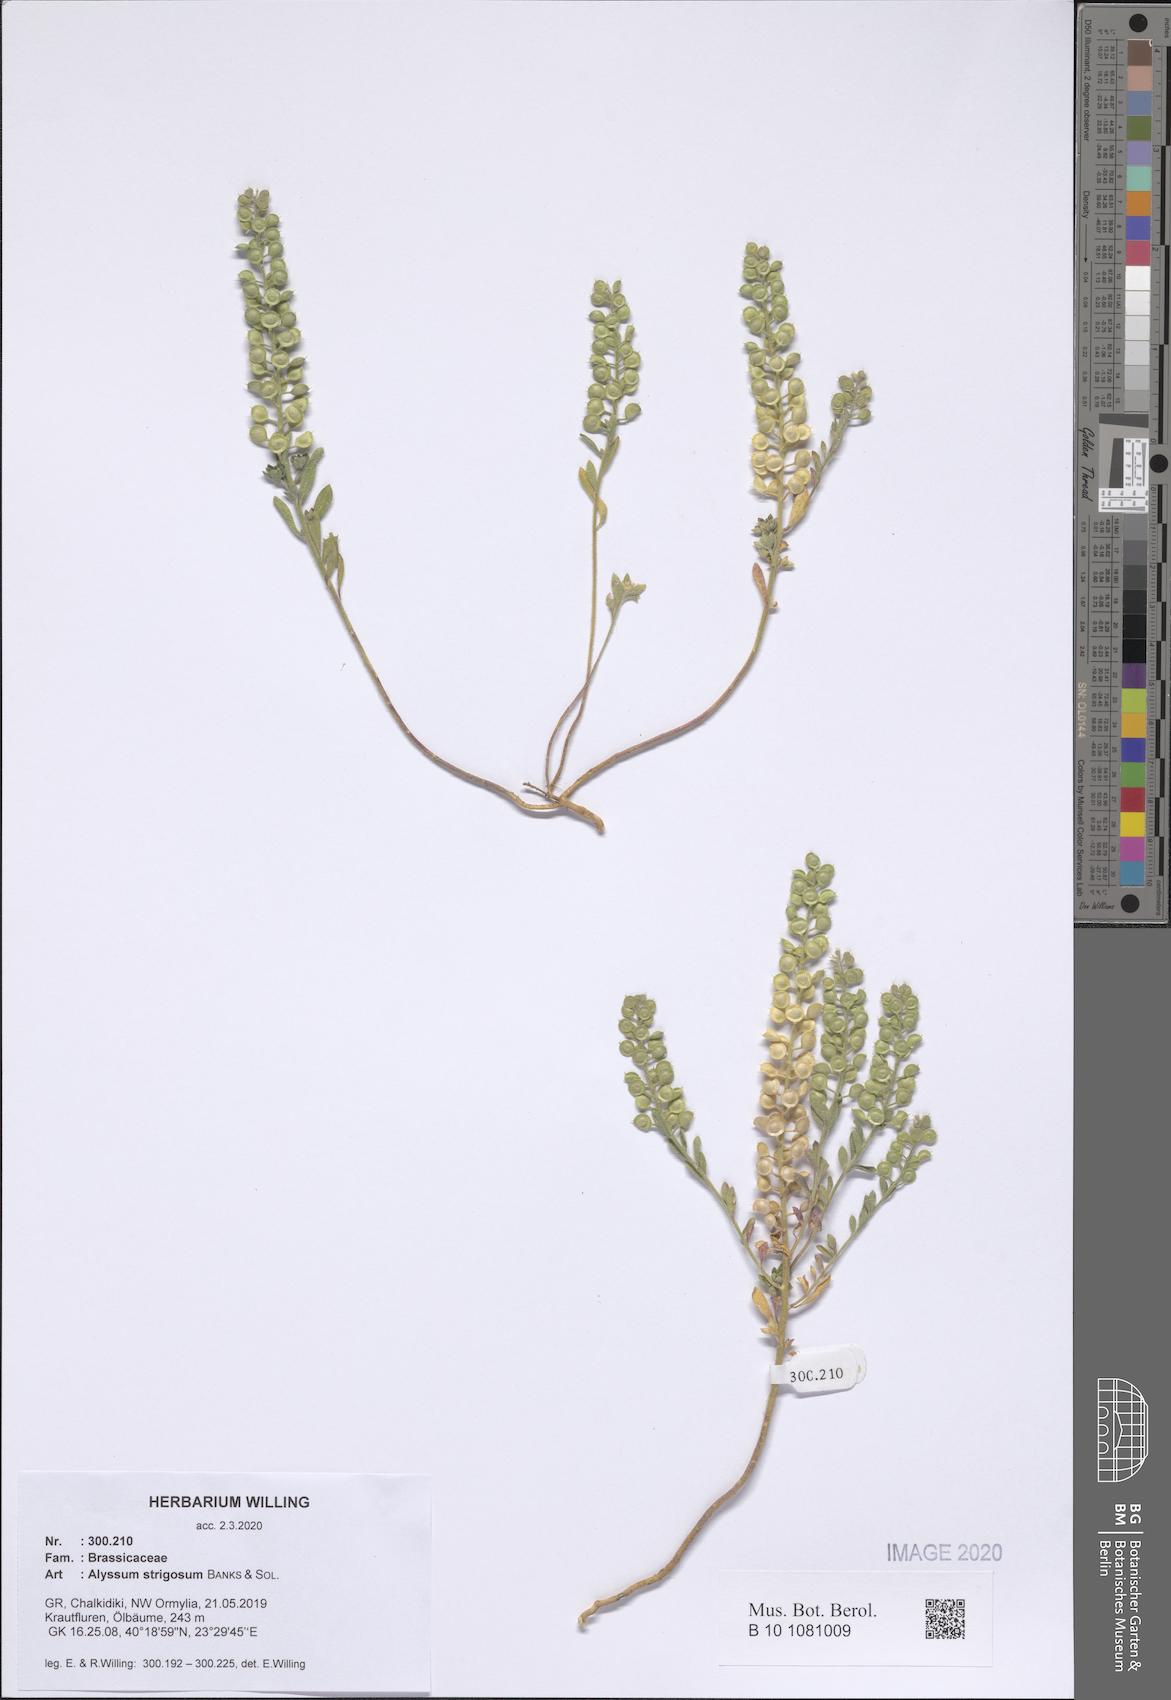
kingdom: Plantae
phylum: Tracheophyta
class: Magnoliopsida
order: Brassicales
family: Brassicaceae
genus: Alyssum
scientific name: Alyssum strigosum
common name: Alyssum
